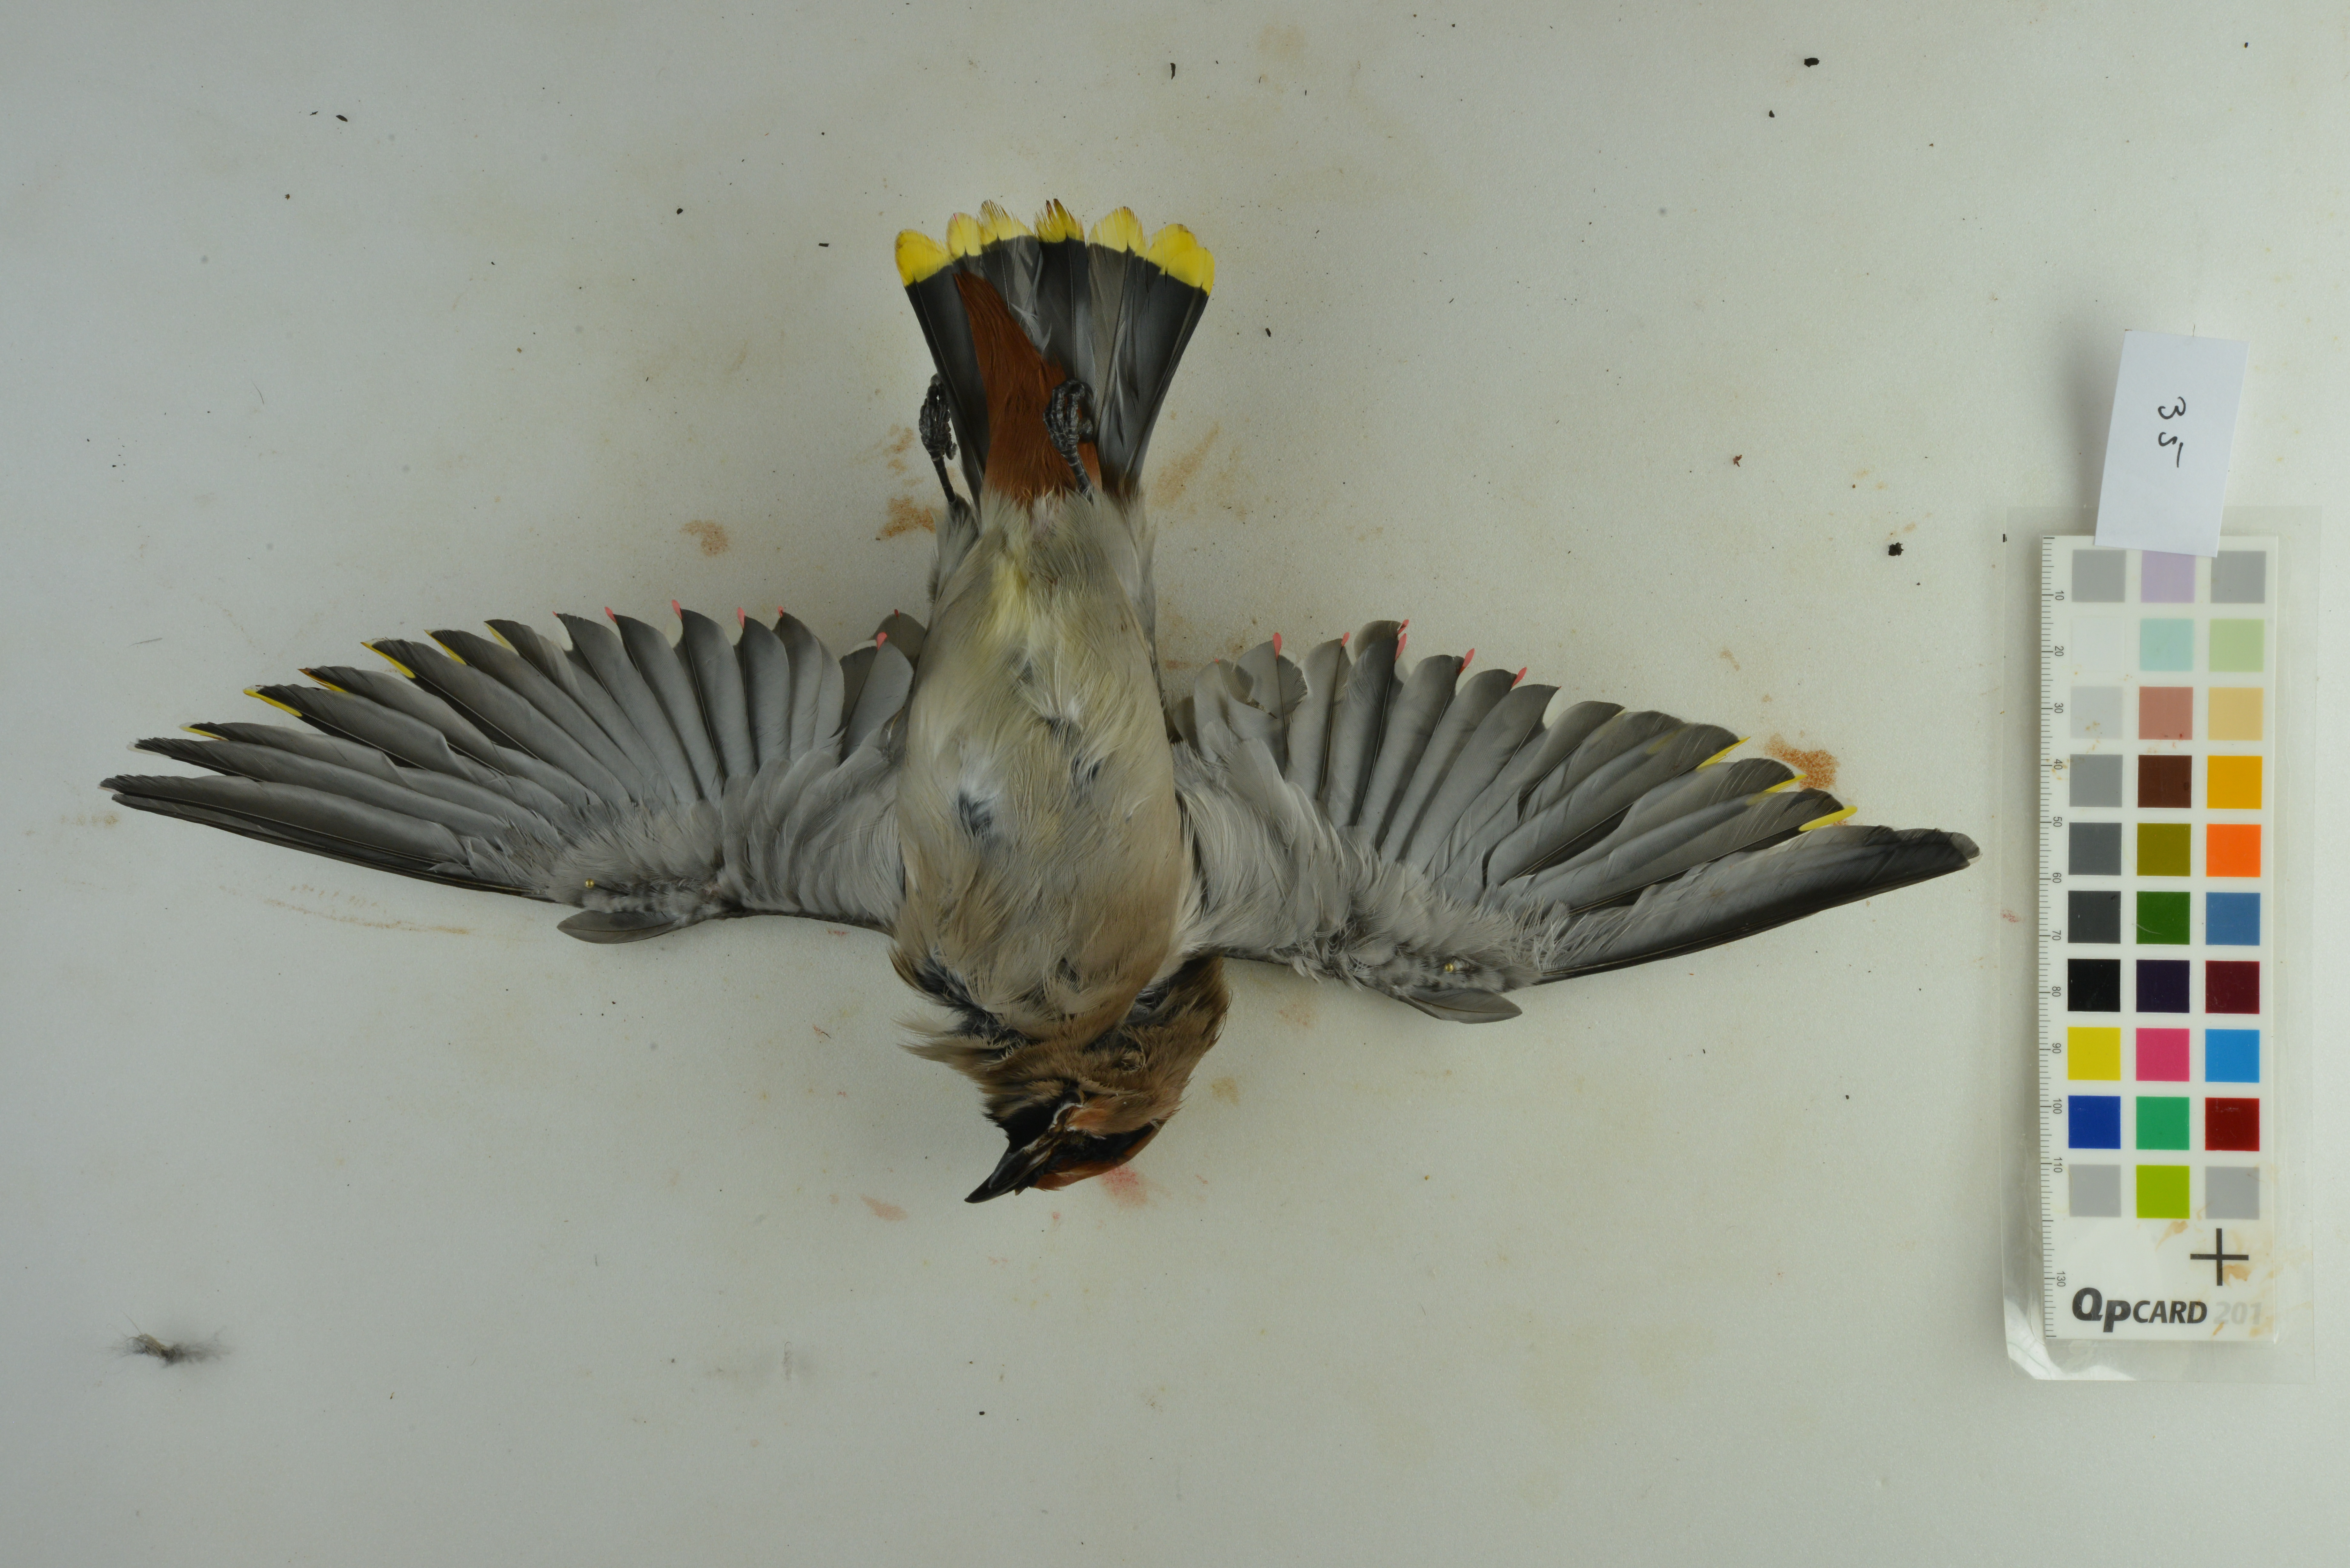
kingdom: Animalia
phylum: Chordata
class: Aves
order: Passeriformes
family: Bombycillidae
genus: Bombycilla
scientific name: Bombycilla garrulus
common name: Bohemian waxwing
